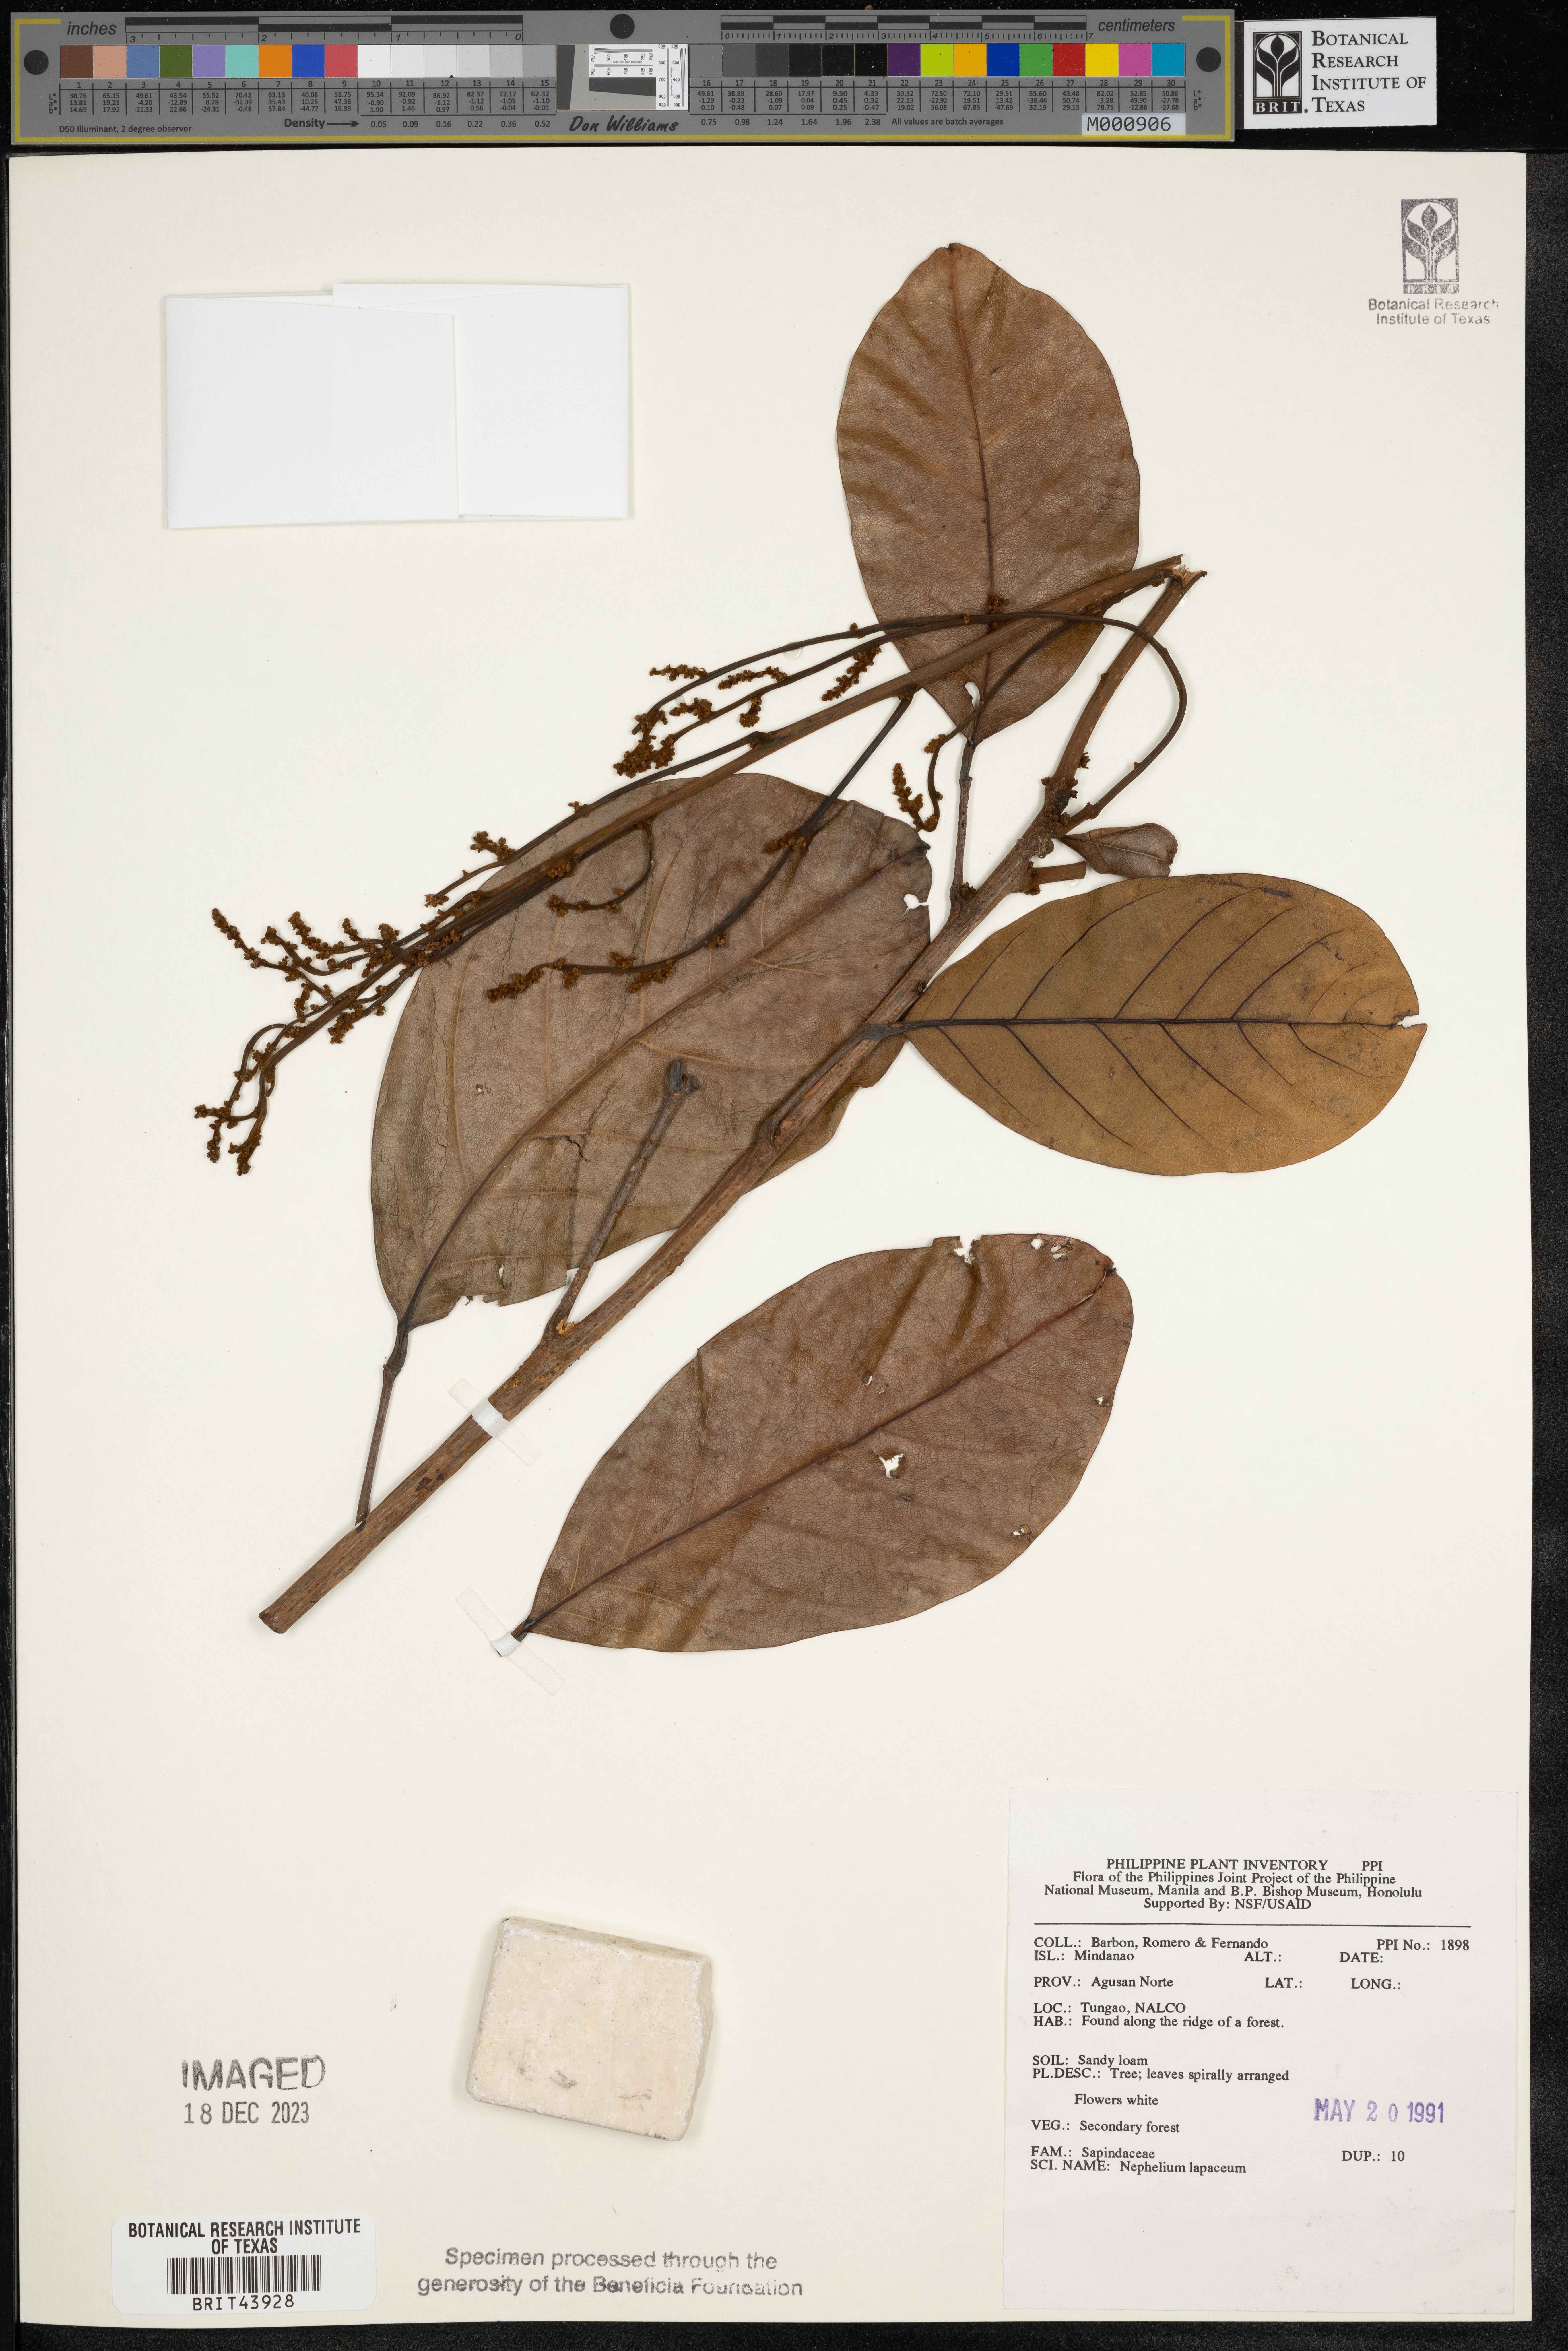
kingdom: Plantae
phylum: Tracheophyta
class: Magnoliopsida
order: Sapindales
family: Sapindaceae
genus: Nephelium
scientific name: Nephelium lappaceum
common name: Rambutan
